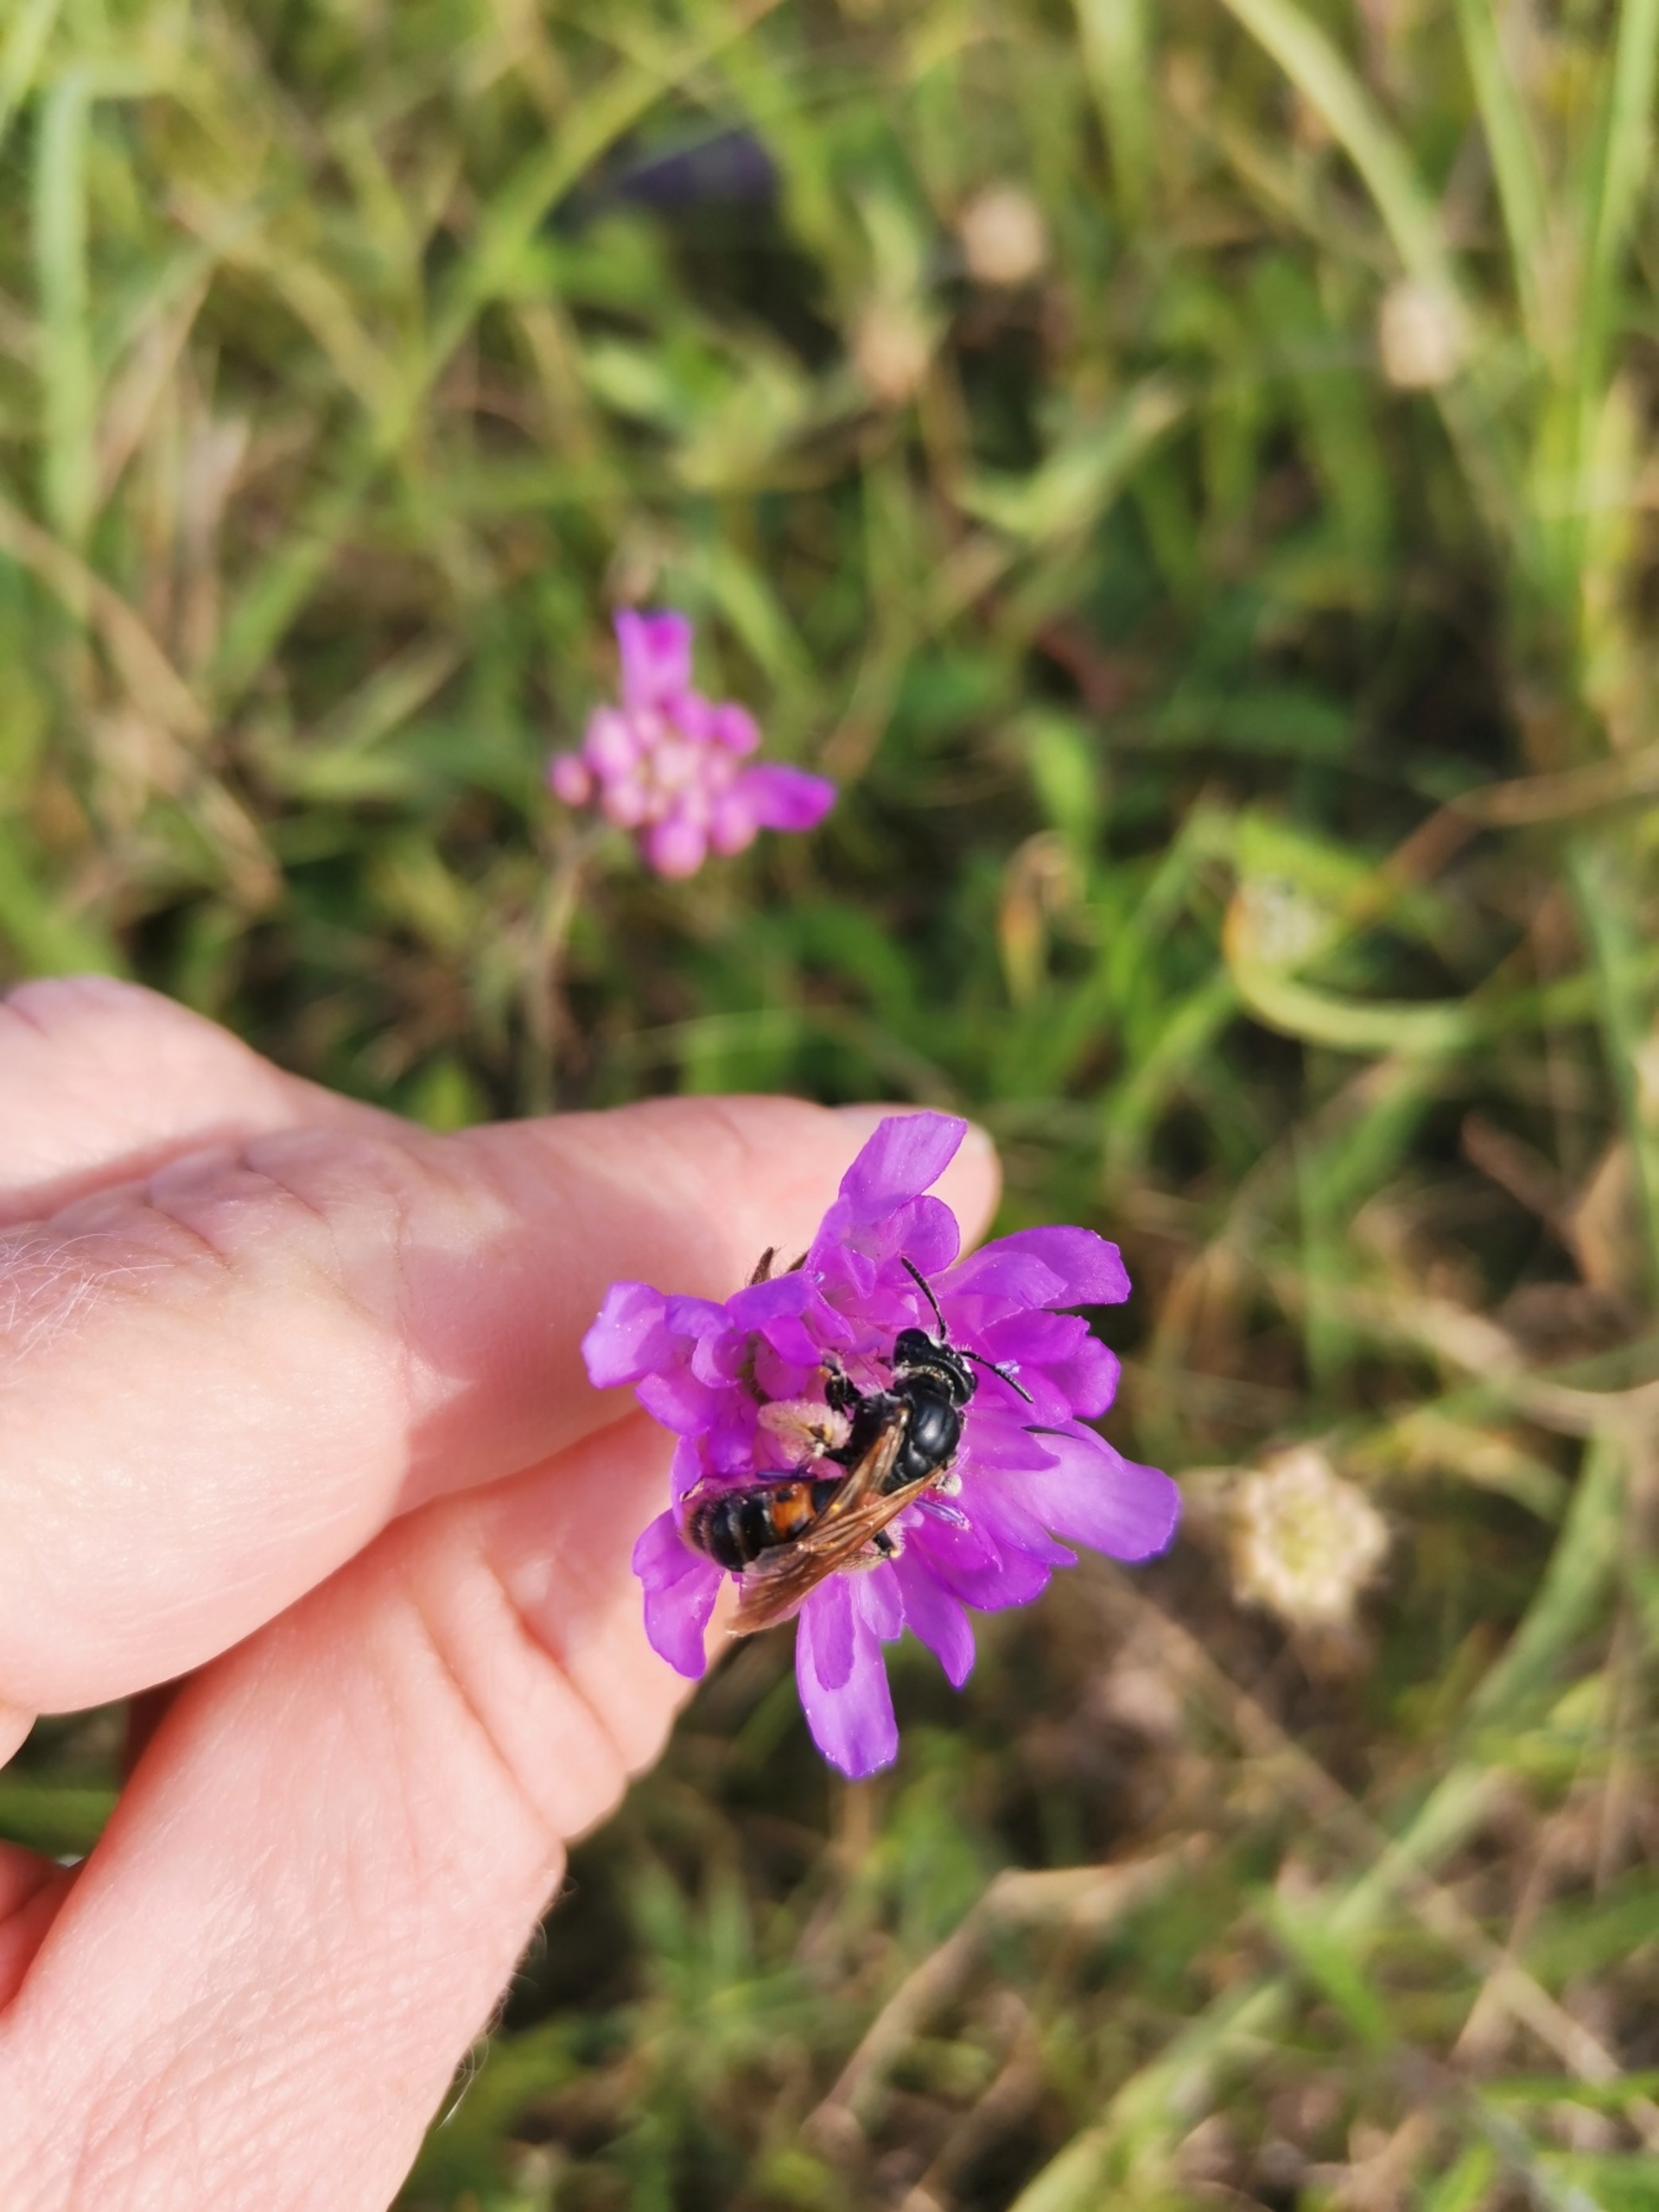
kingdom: Animalia
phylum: Arthropoda
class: Insecta
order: Hymenoptera
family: Andrenidae
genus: Andrena
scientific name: Andrena hattorfiana
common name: Blåhatjordbi
